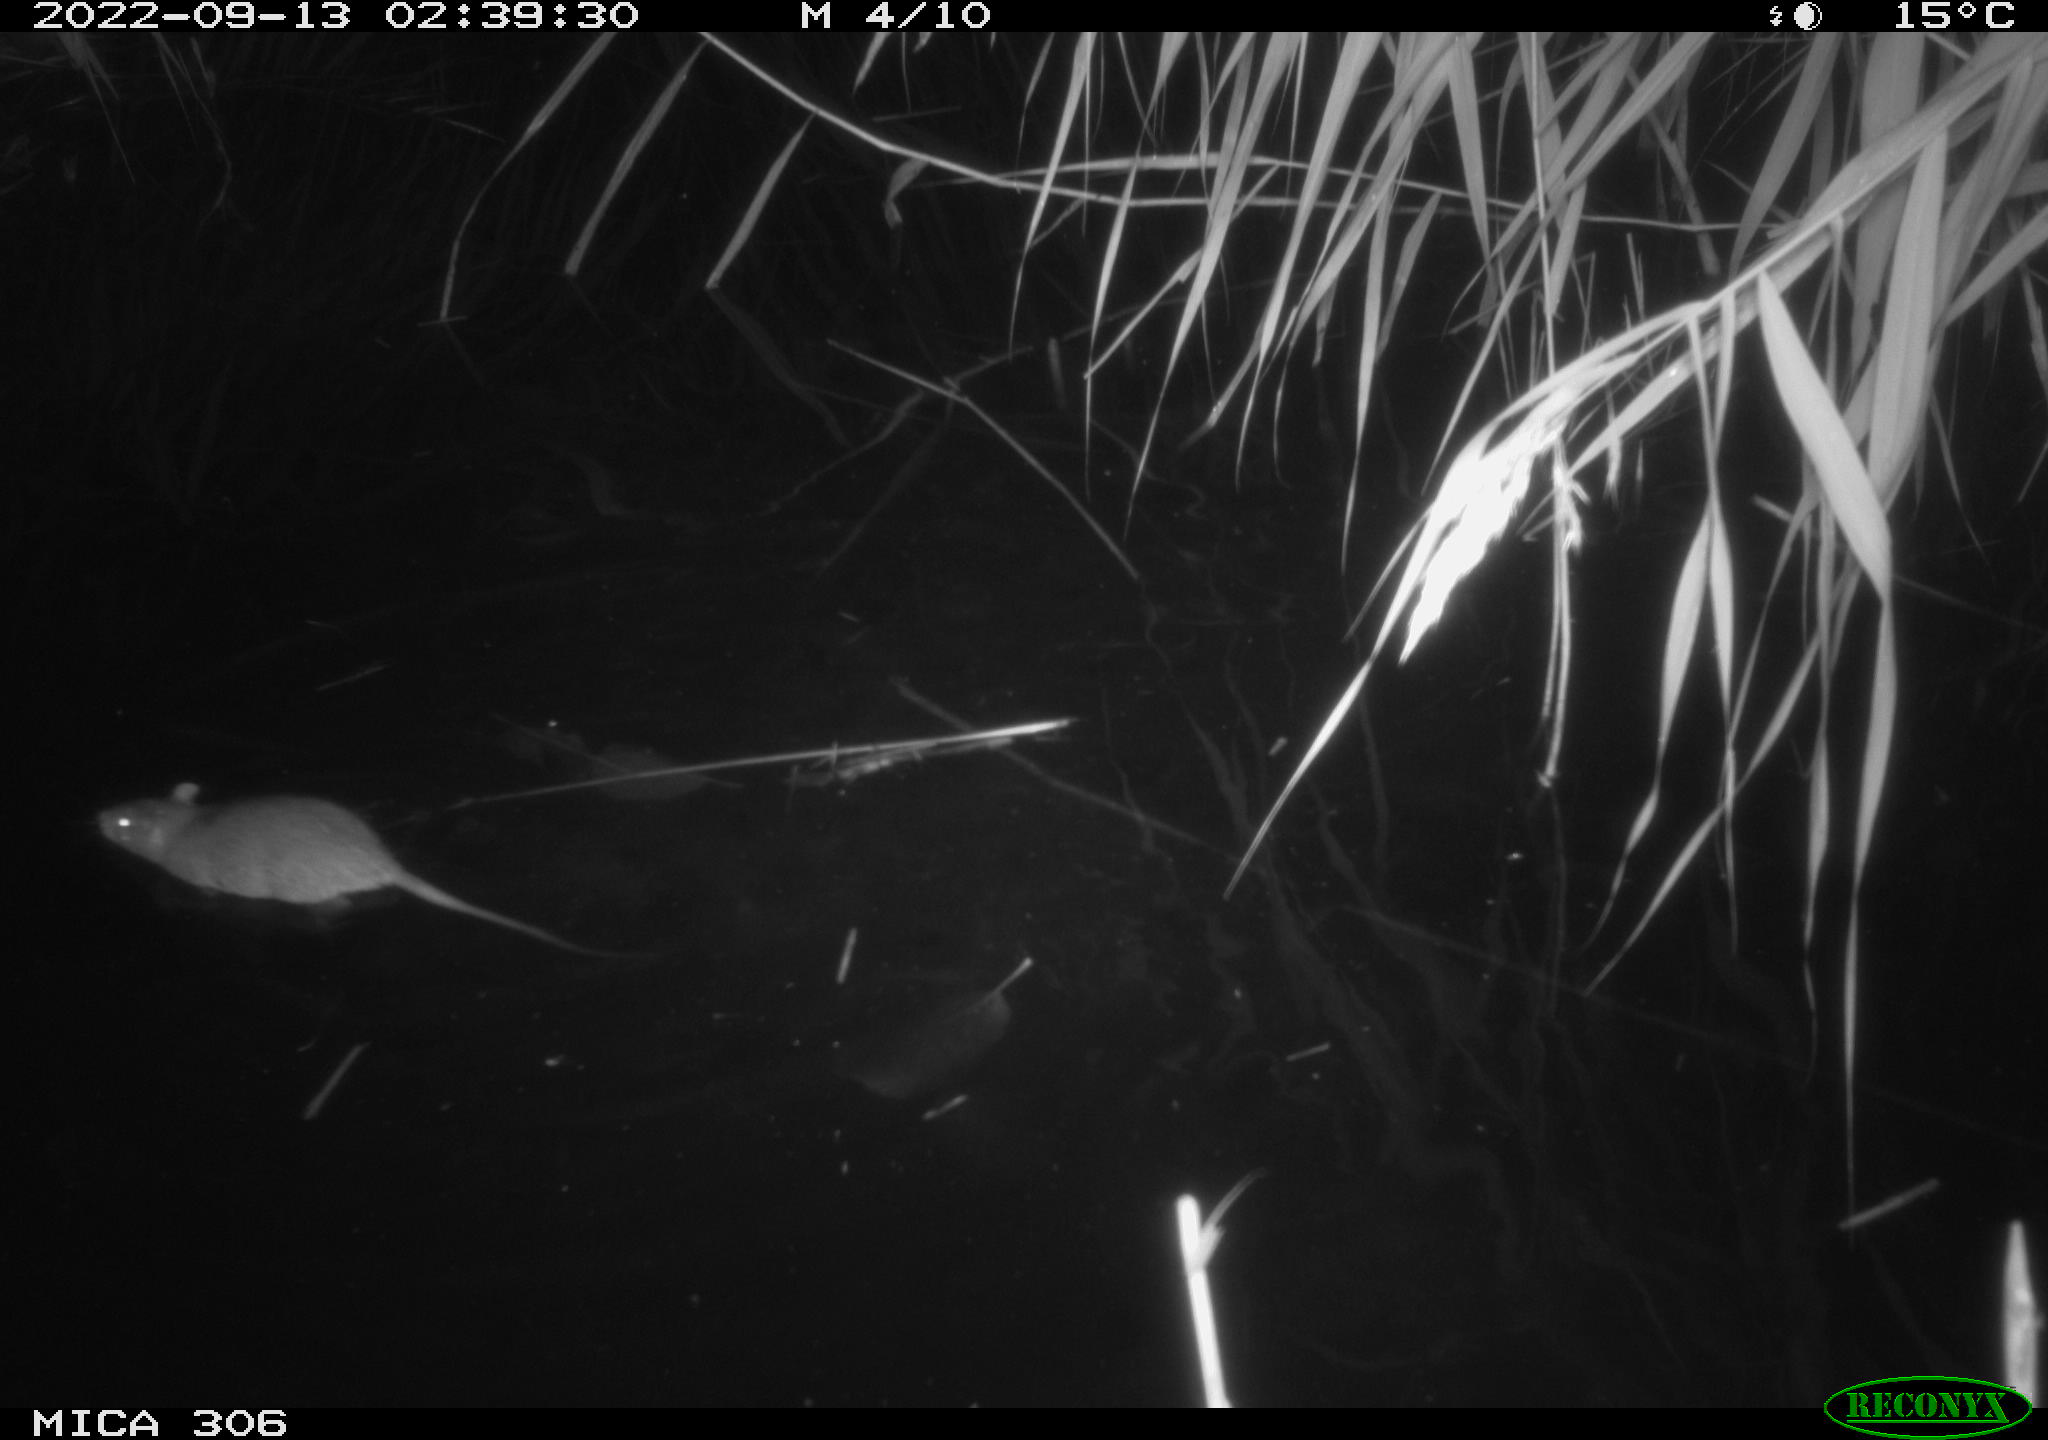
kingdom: Animalia
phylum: Chordata
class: Mammalia
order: Rodentia
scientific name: Rodentia
